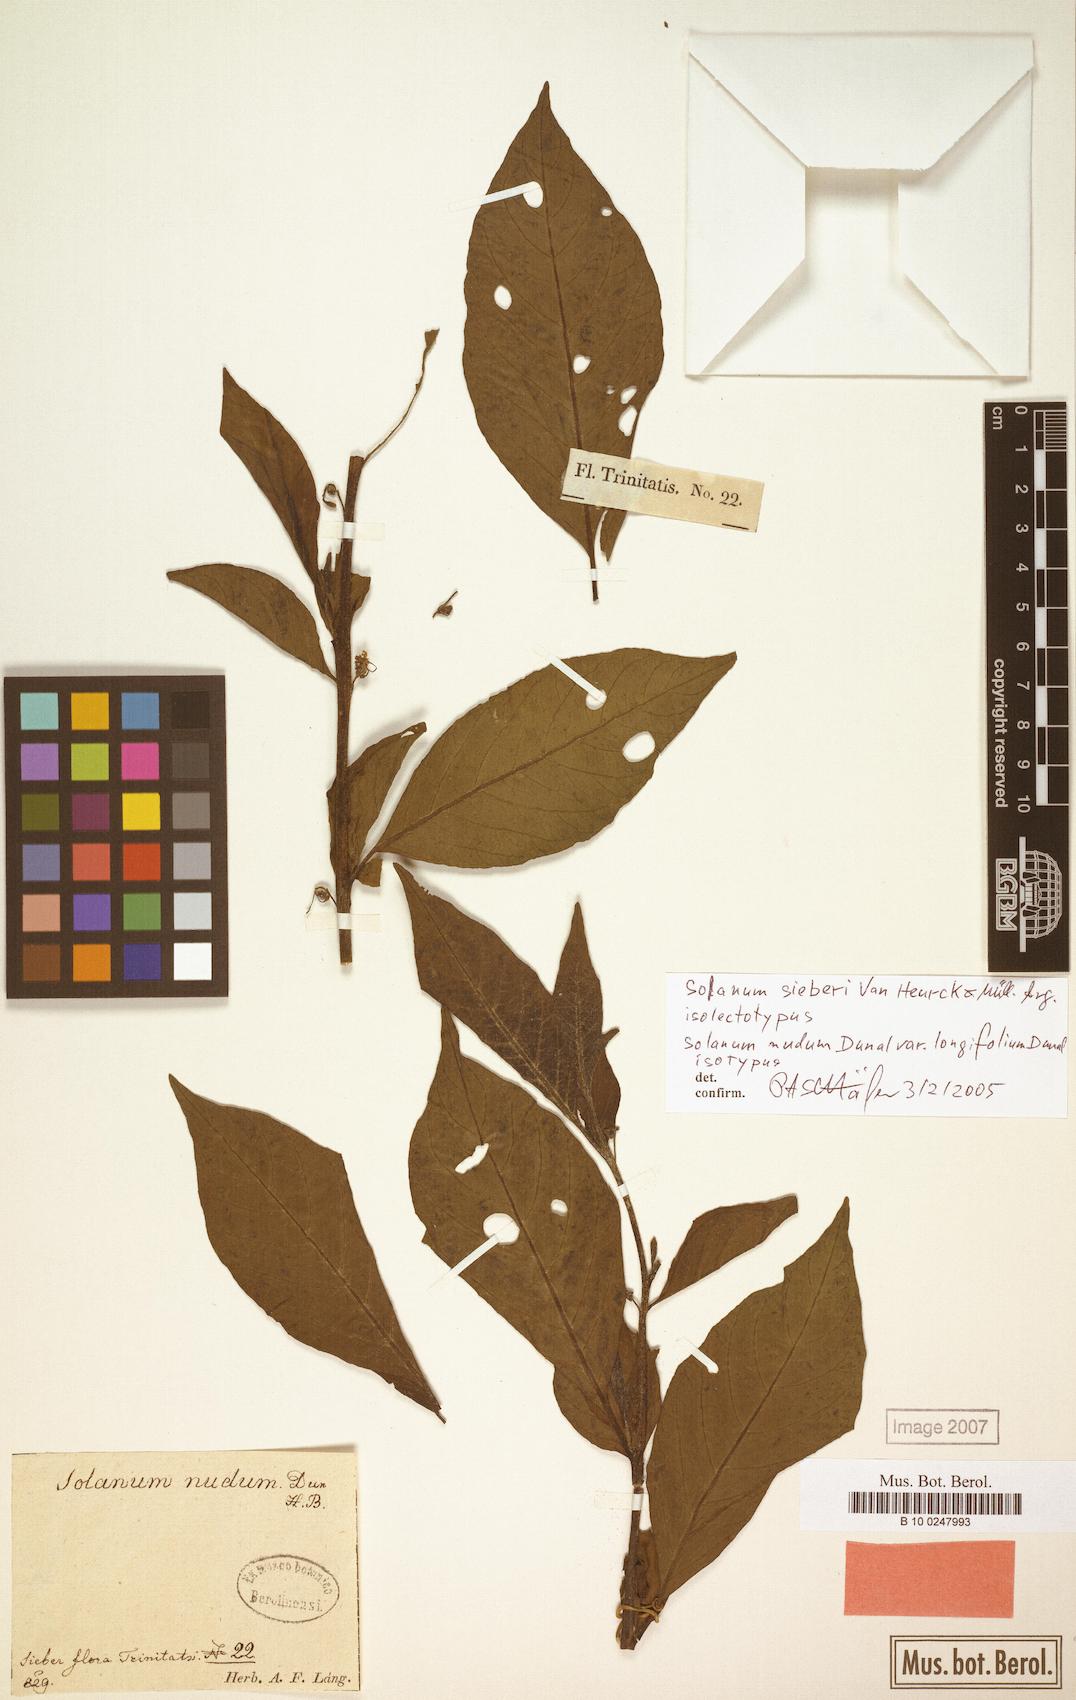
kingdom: Plantae
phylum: Tracheophyta
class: Magnoliopsida
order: Solanales
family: Solanaceae
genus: Solanum
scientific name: Solanum sieberi
